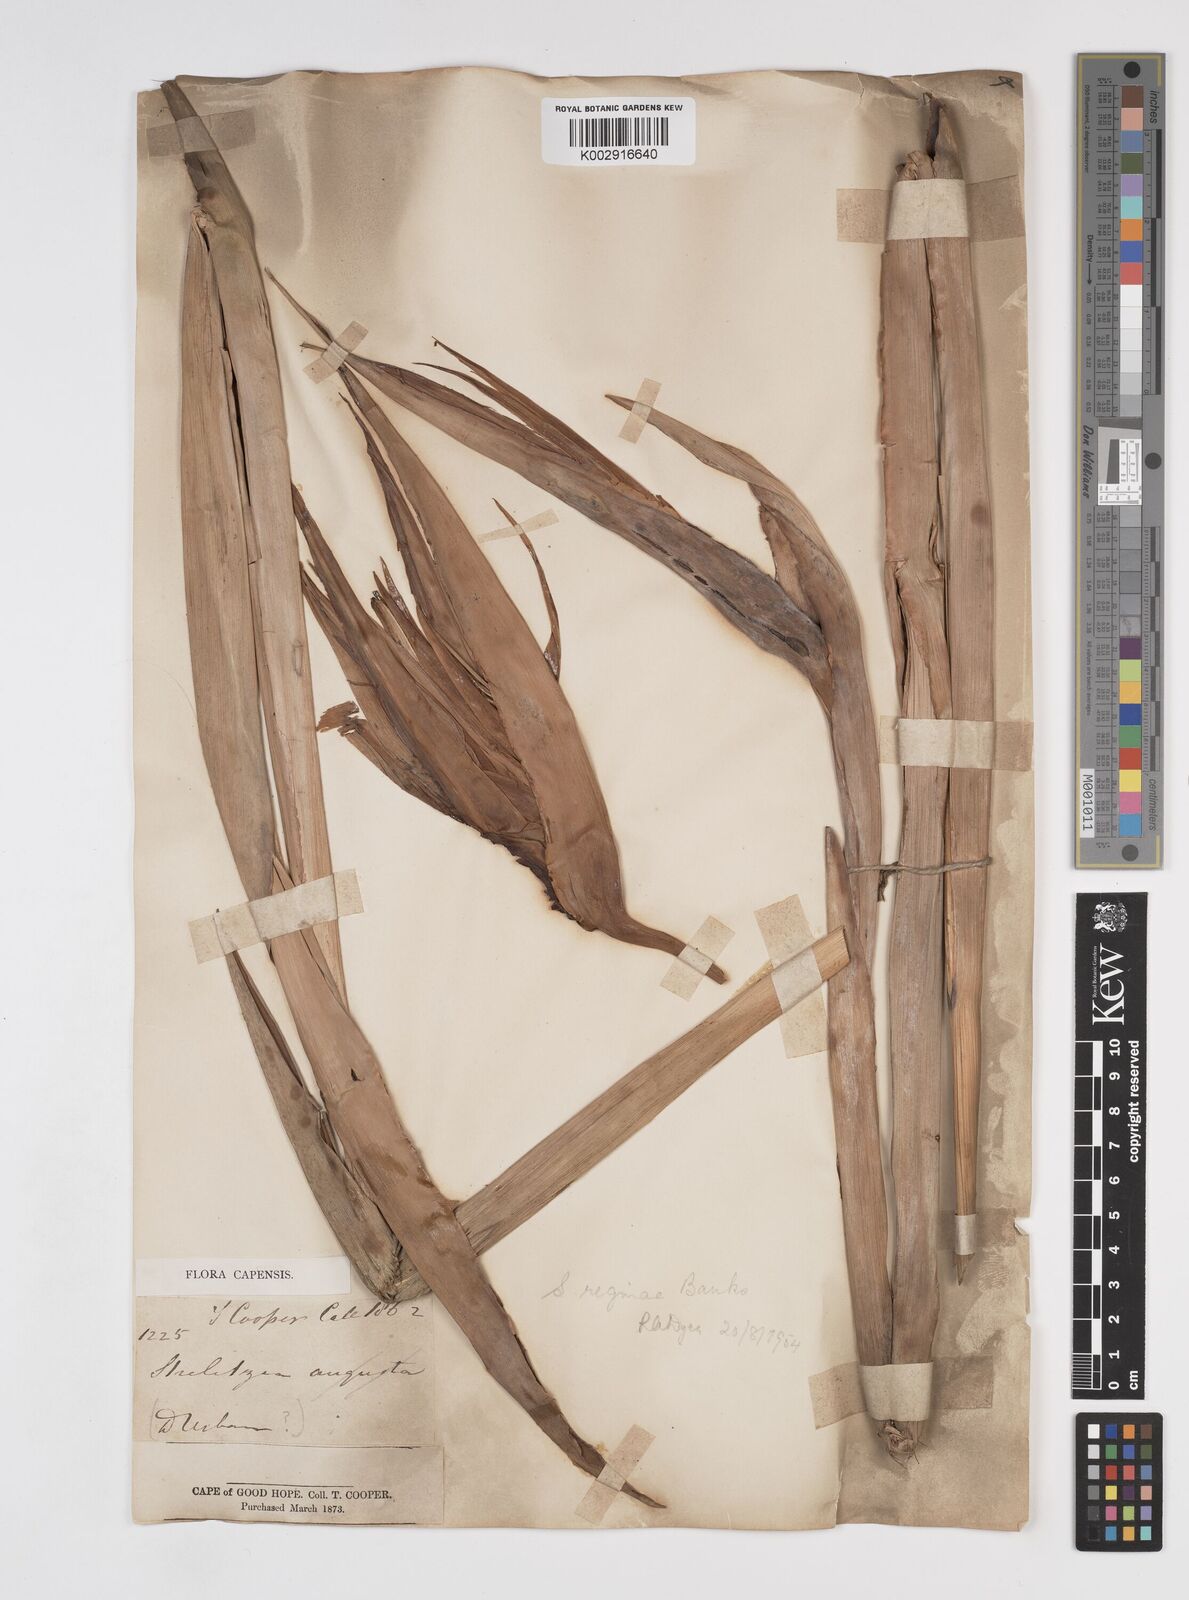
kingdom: Plantae
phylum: Tracheophyta
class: Liliopsida
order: Zingiberales
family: Strelitziaceae
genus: Strelitzia
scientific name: Strelitzia reginae
